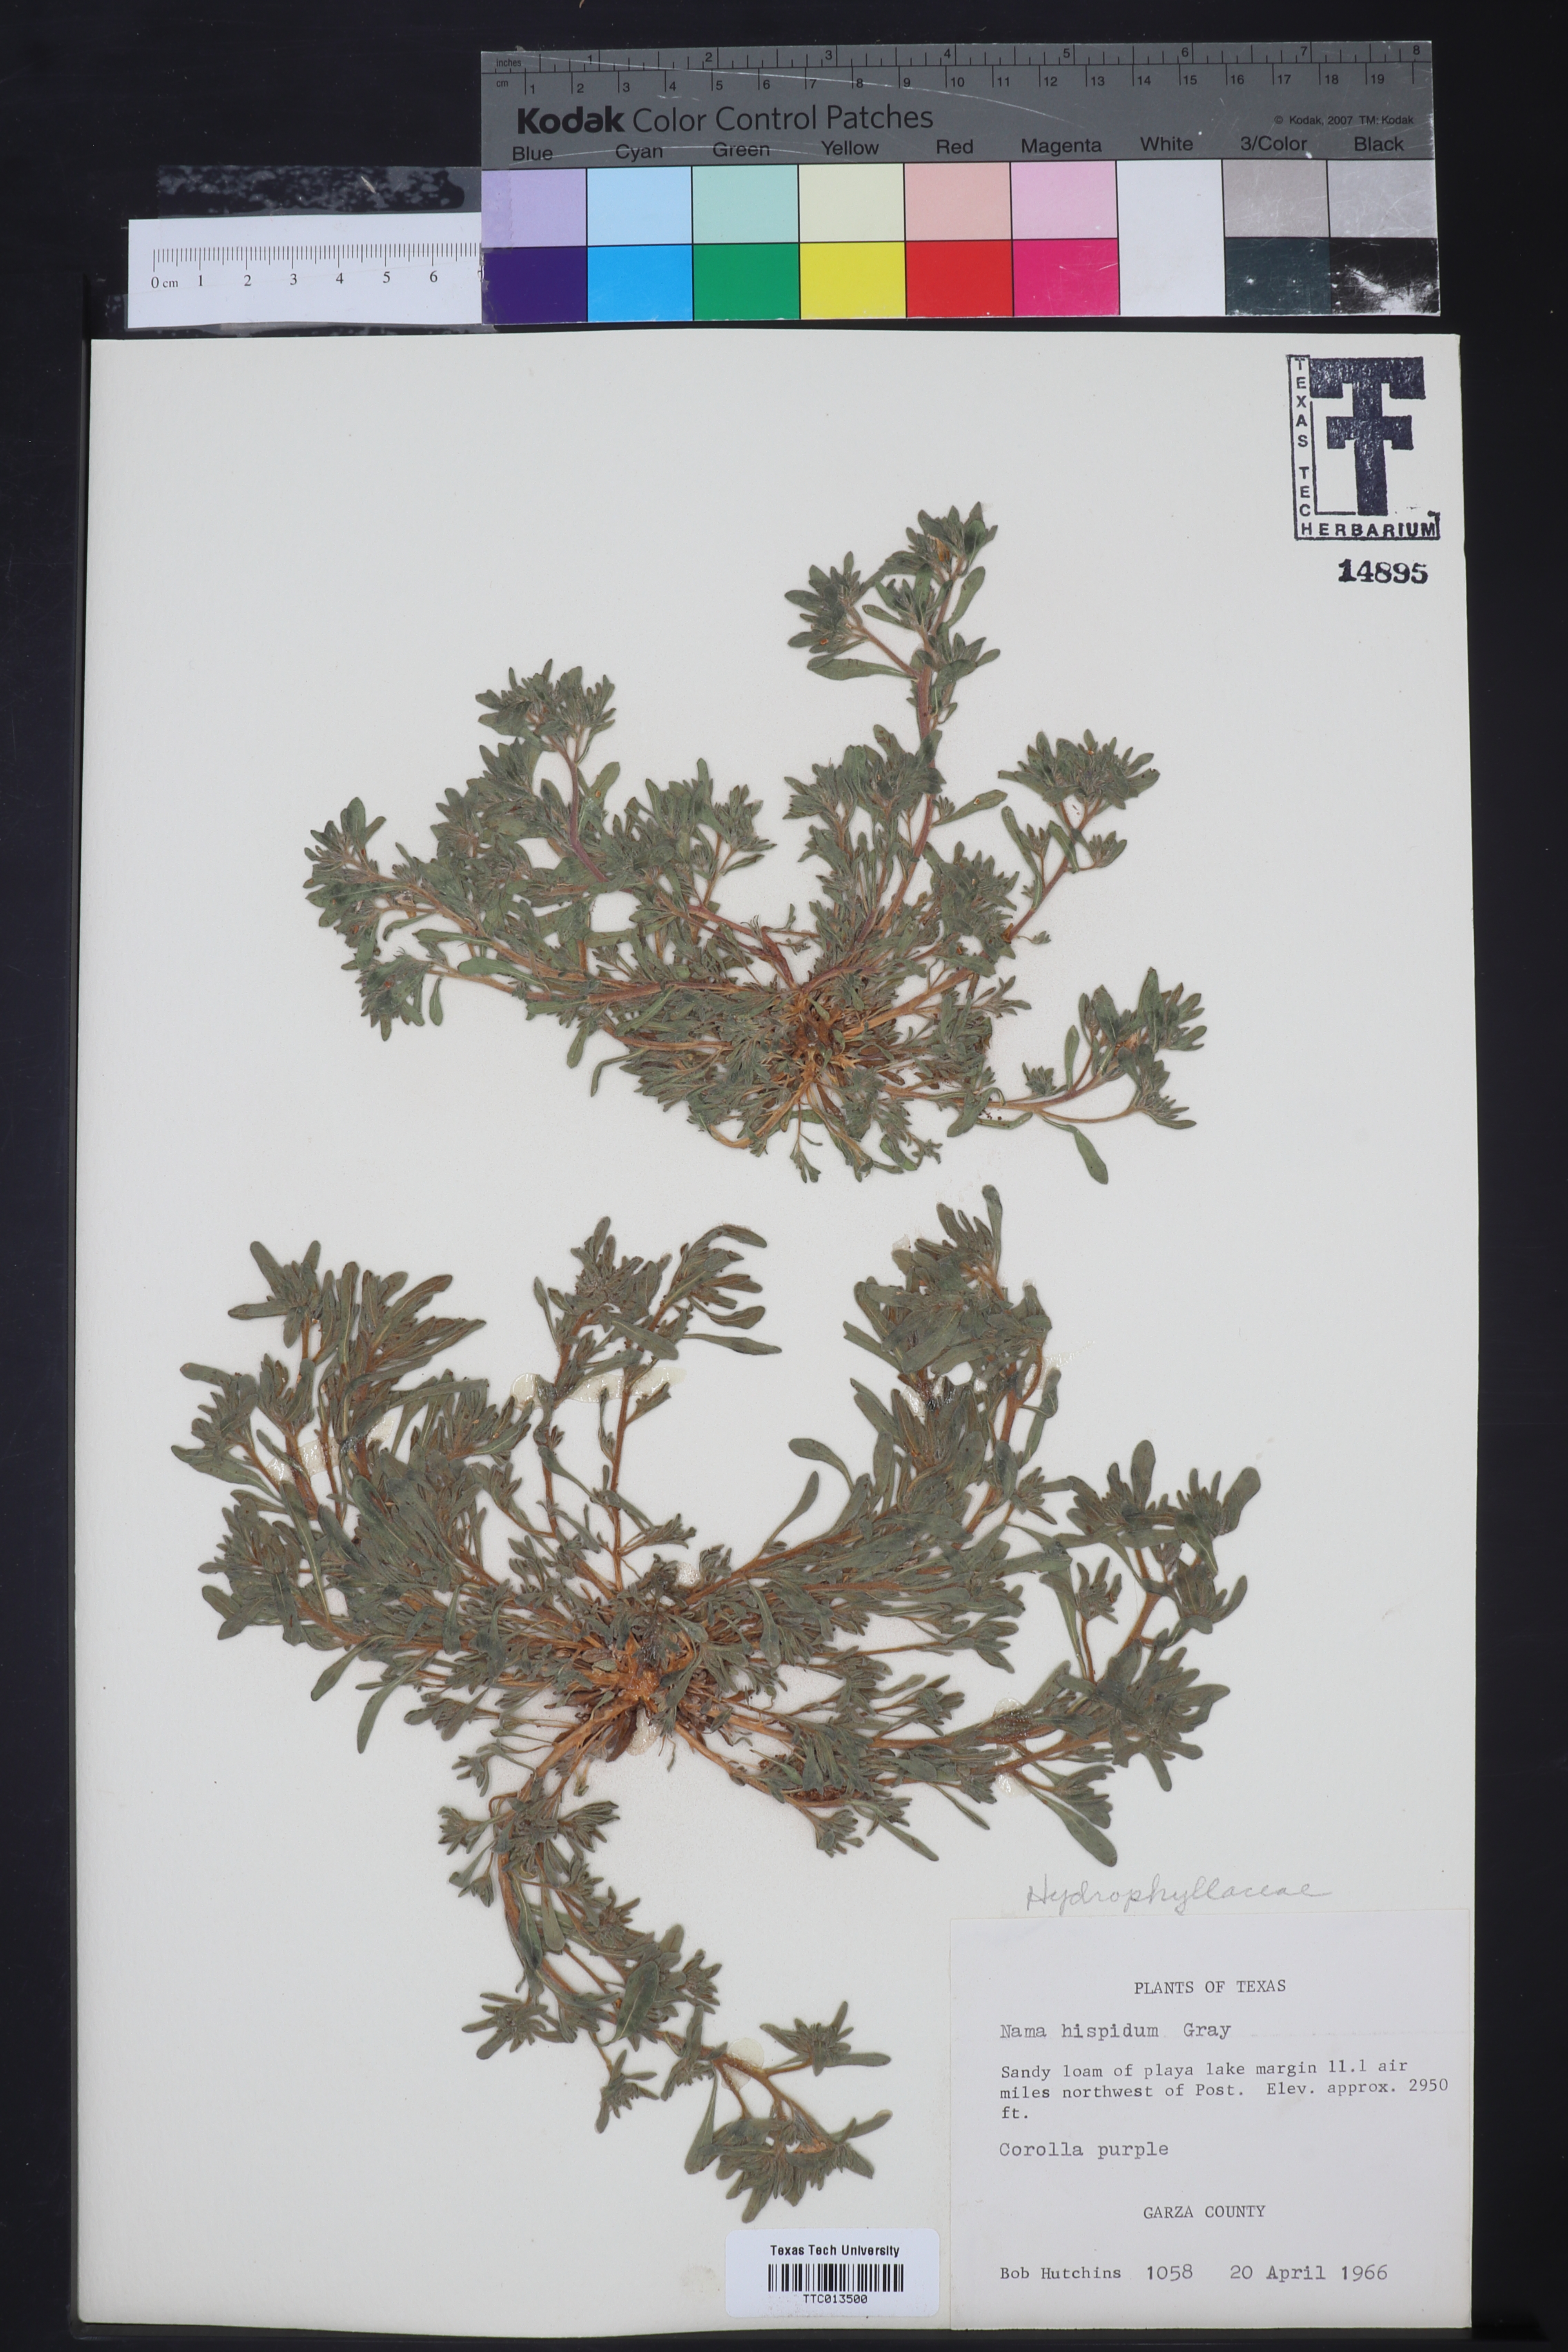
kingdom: Plantae
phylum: Tracheophyta
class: Magnoliopsida
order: Boraginales
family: Namaceae
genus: Nama
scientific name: Nama hispida
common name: Bristly nama
